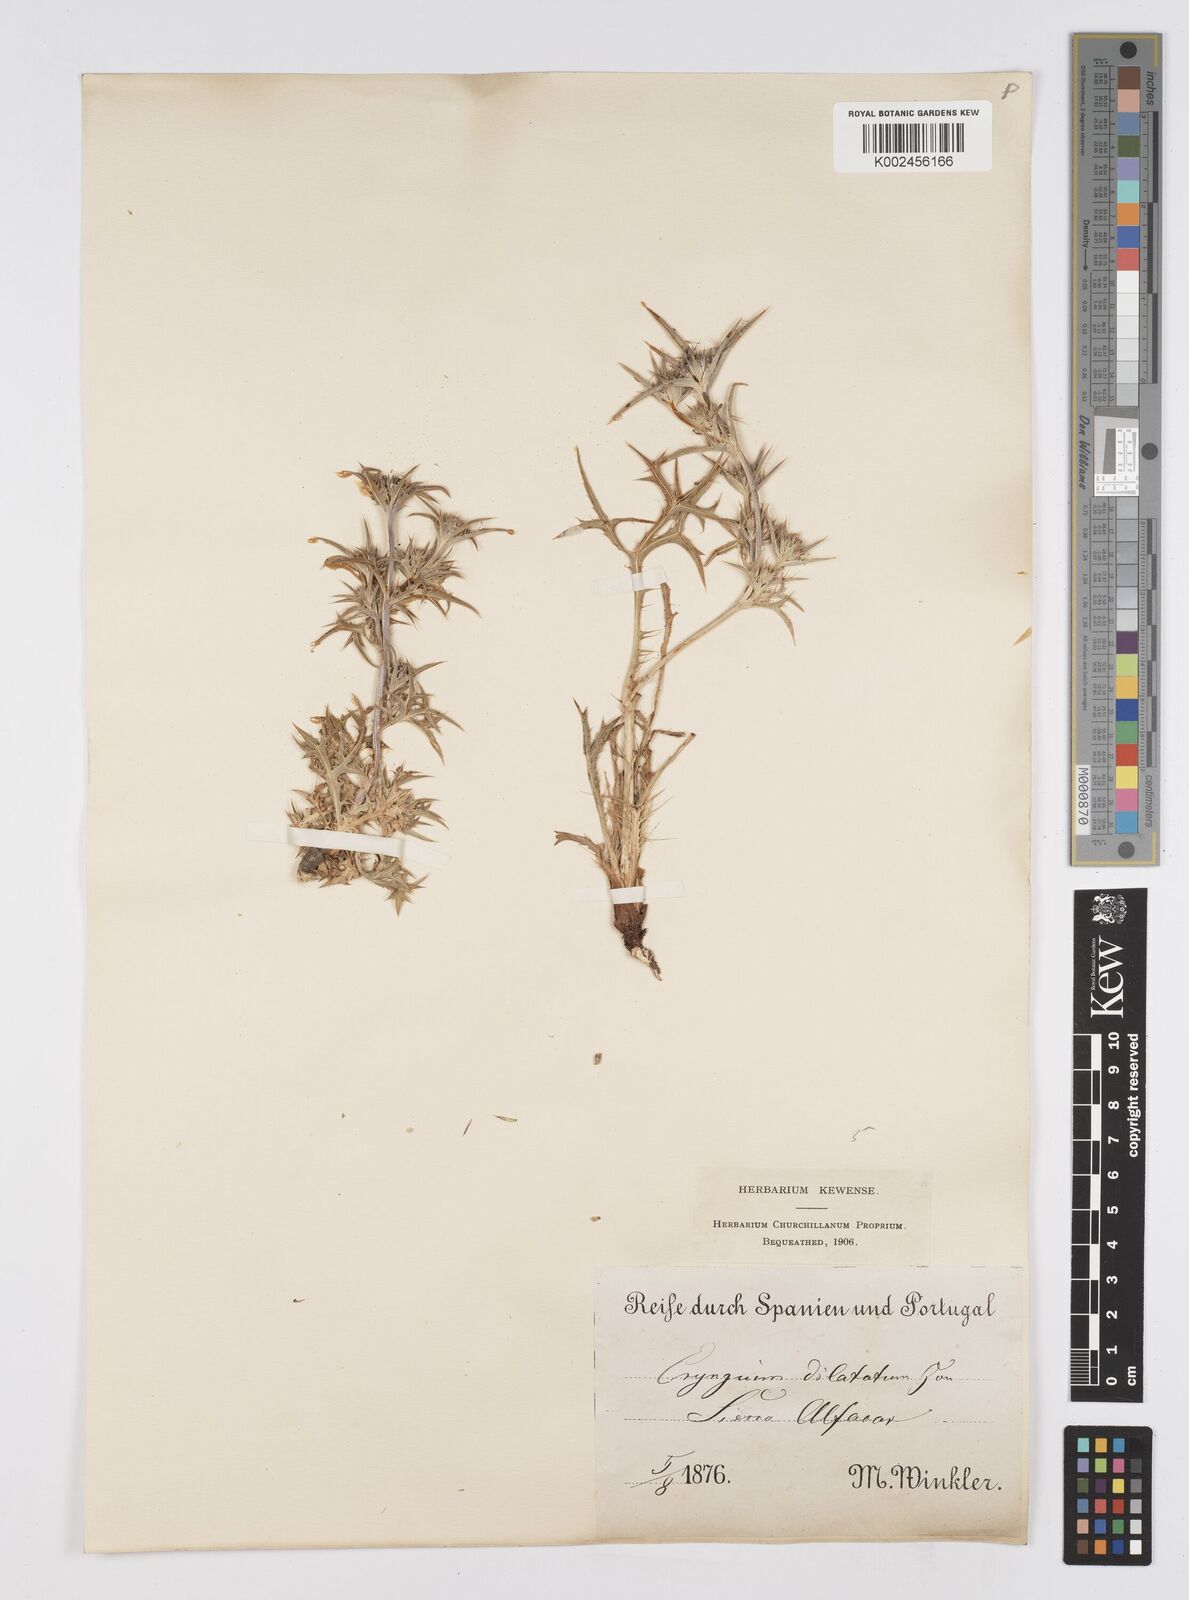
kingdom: Plantae
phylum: Tracheophyta
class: Magnoliopsida
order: Apiales
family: Apiaceae
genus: Eryngium
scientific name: Eryngium dilatatum
